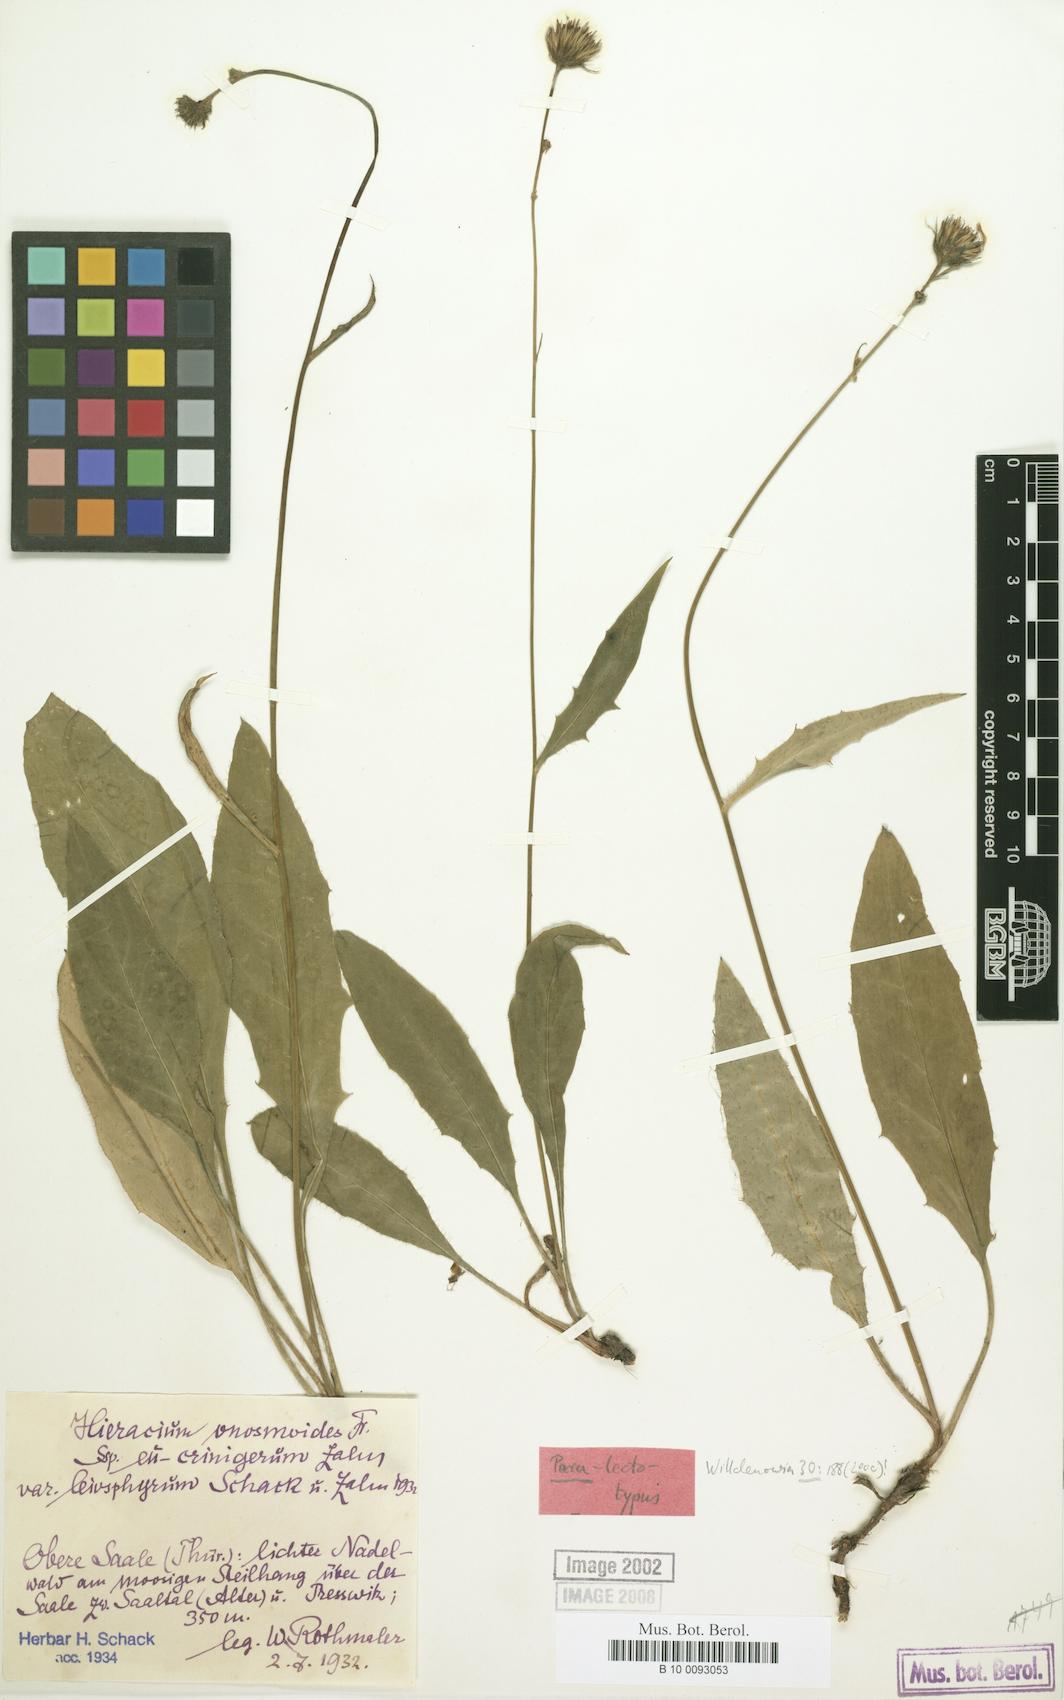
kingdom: Plantae
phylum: Tracheophyta
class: Magnoliopsida
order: Asterales
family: Asteraceae
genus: Hieracium
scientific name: Hieracium onosmoides
